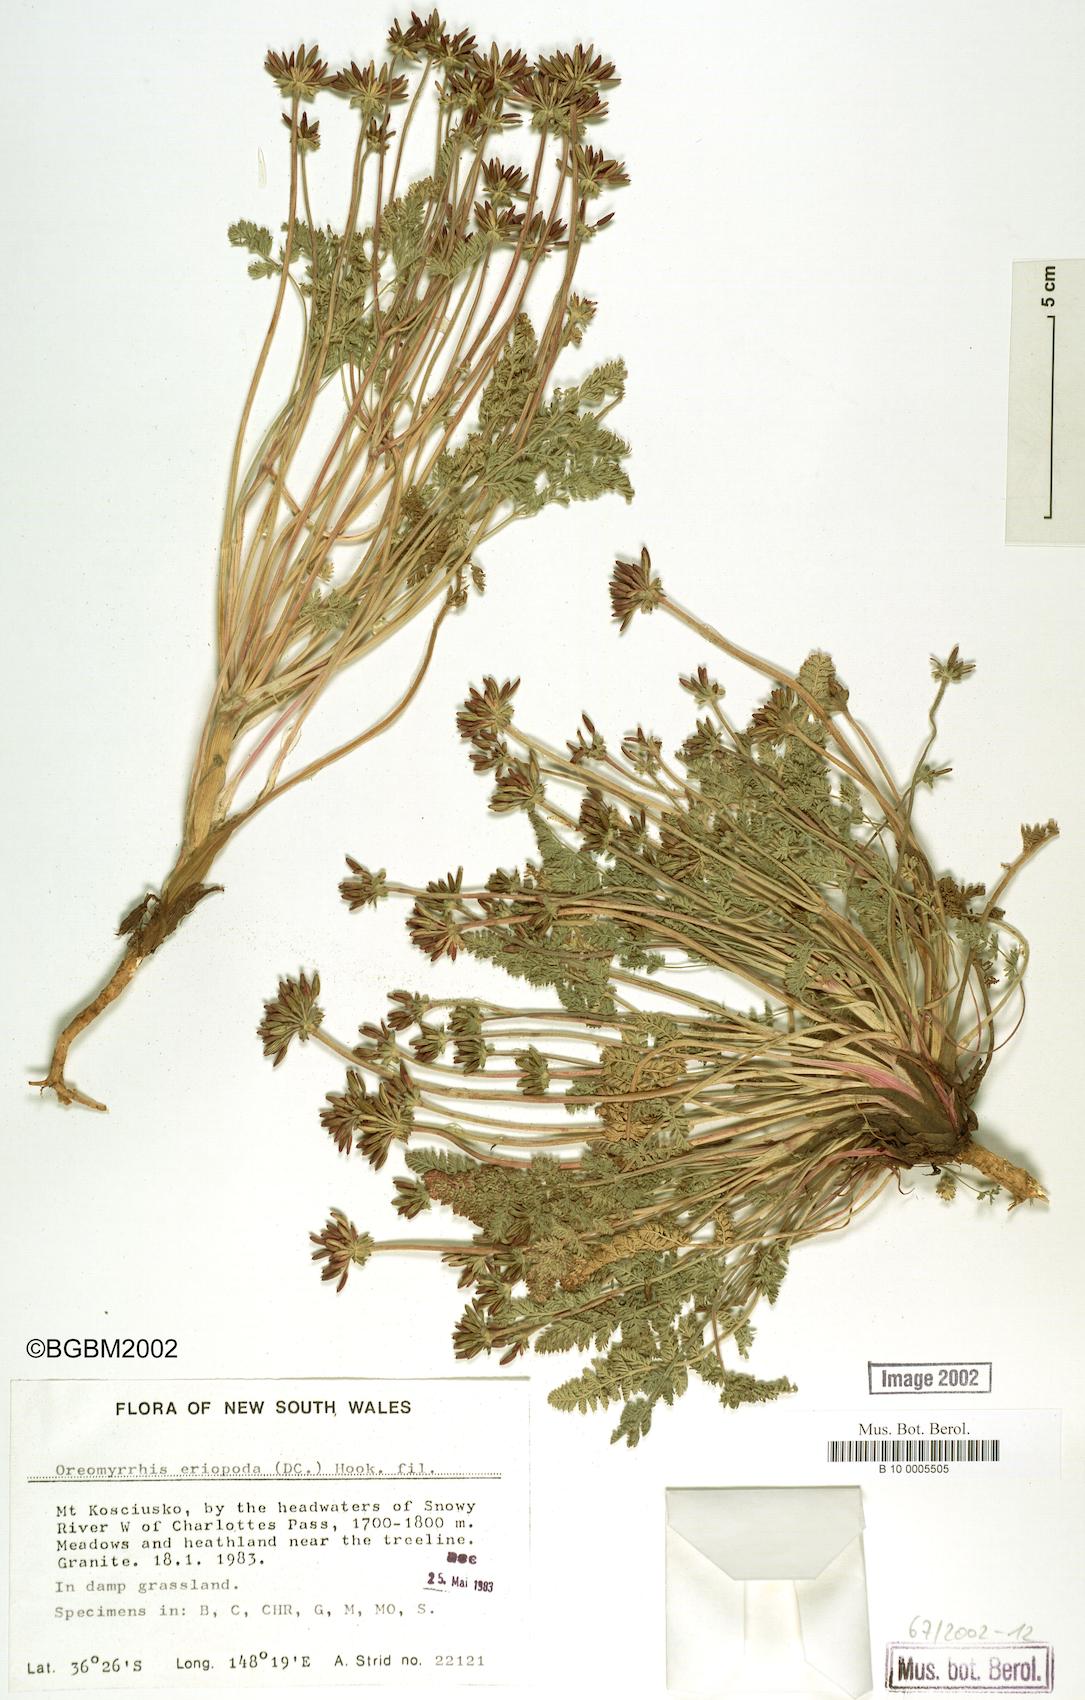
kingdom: Plantae
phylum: Tracheophyta
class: Magnoliopsida
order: Apiales
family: Apiaceae
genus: Chaerophyllum
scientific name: Chaerophyllum eriopodum
